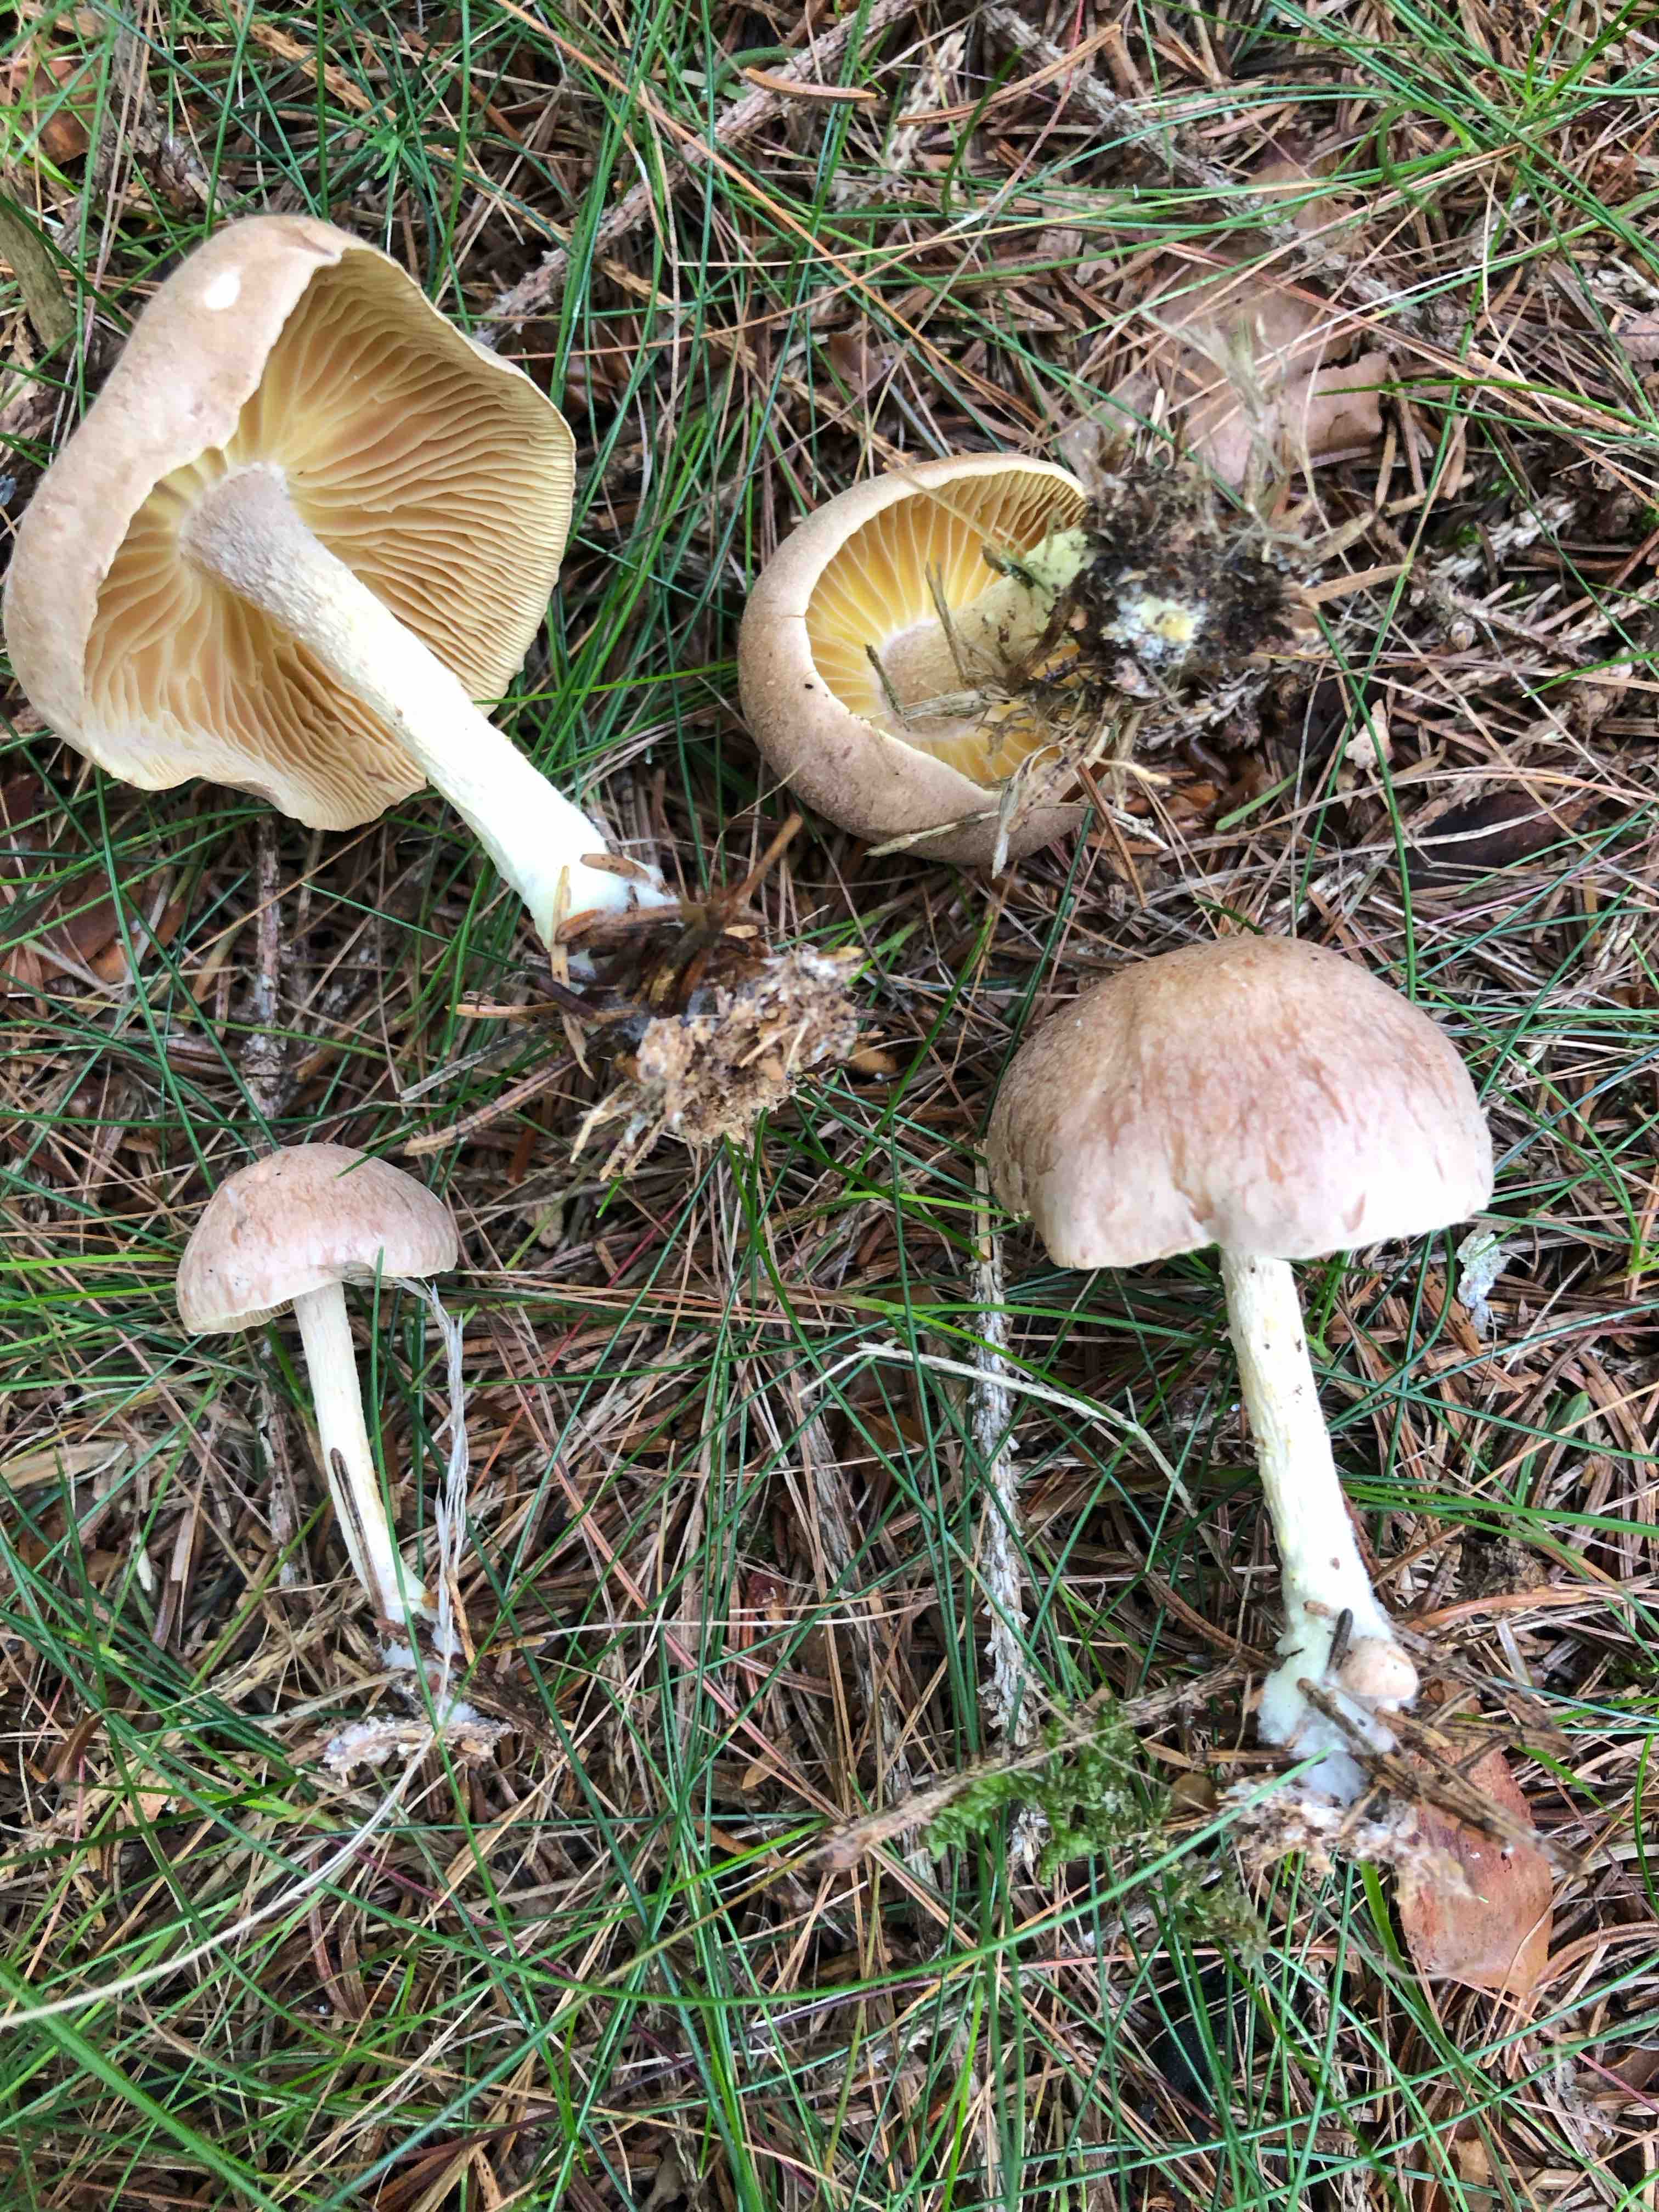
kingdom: Fungi
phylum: Basidiomycota
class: Agaricomycetes
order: Agaricales
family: Omphalotaceae
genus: Collybiopsis
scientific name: Collybiopsis peronata
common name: bestøvlet fladhat
